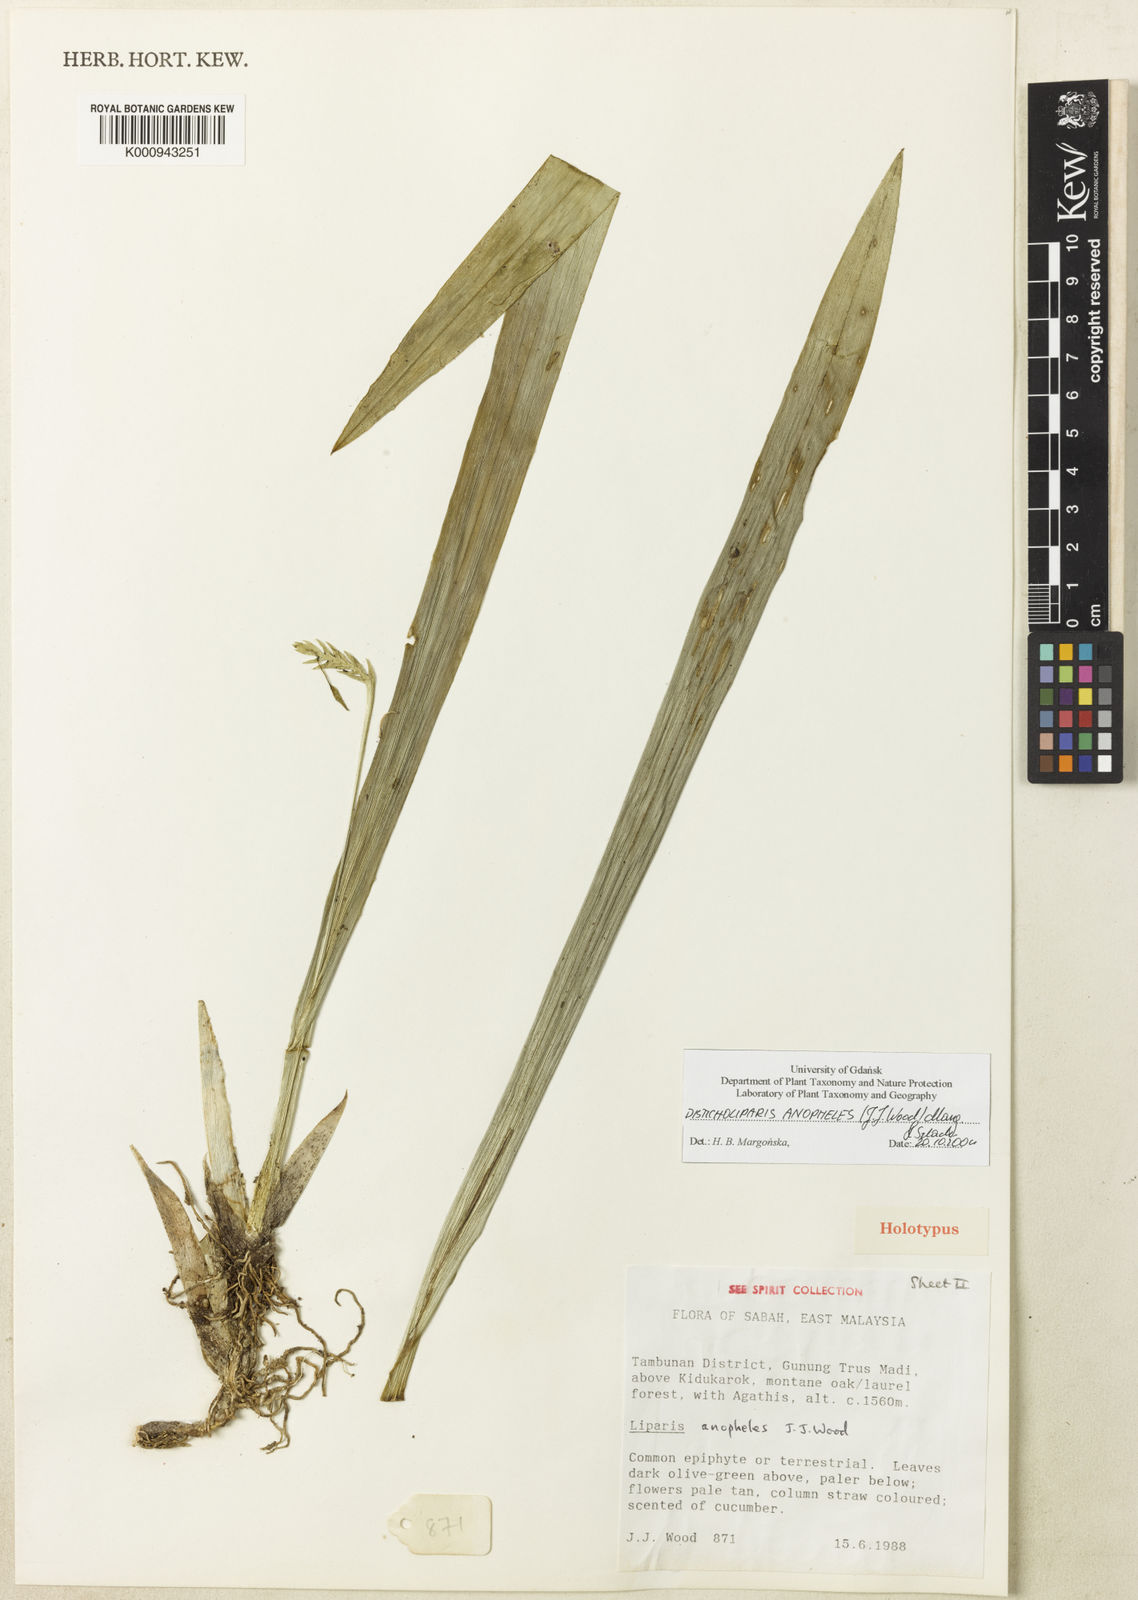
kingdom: Plantae
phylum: Tracheophyta
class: Liliopsida
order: Asparagales
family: Orchidaceae
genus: Liparis
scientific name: Liparis anopheles
